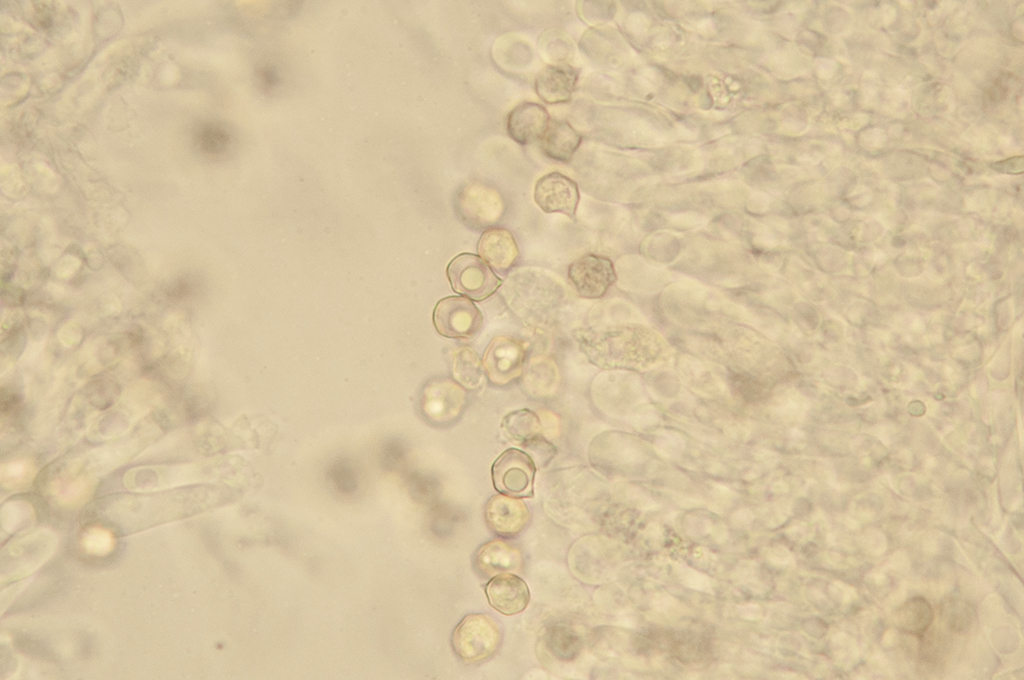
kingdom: Fungi
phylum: Basidiomycota
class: Agaricomycetes
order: Agaricales
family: Entolomataceae
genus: Entoloma
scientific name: Entoloma sericeum
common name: silkeglinsende rødblad
